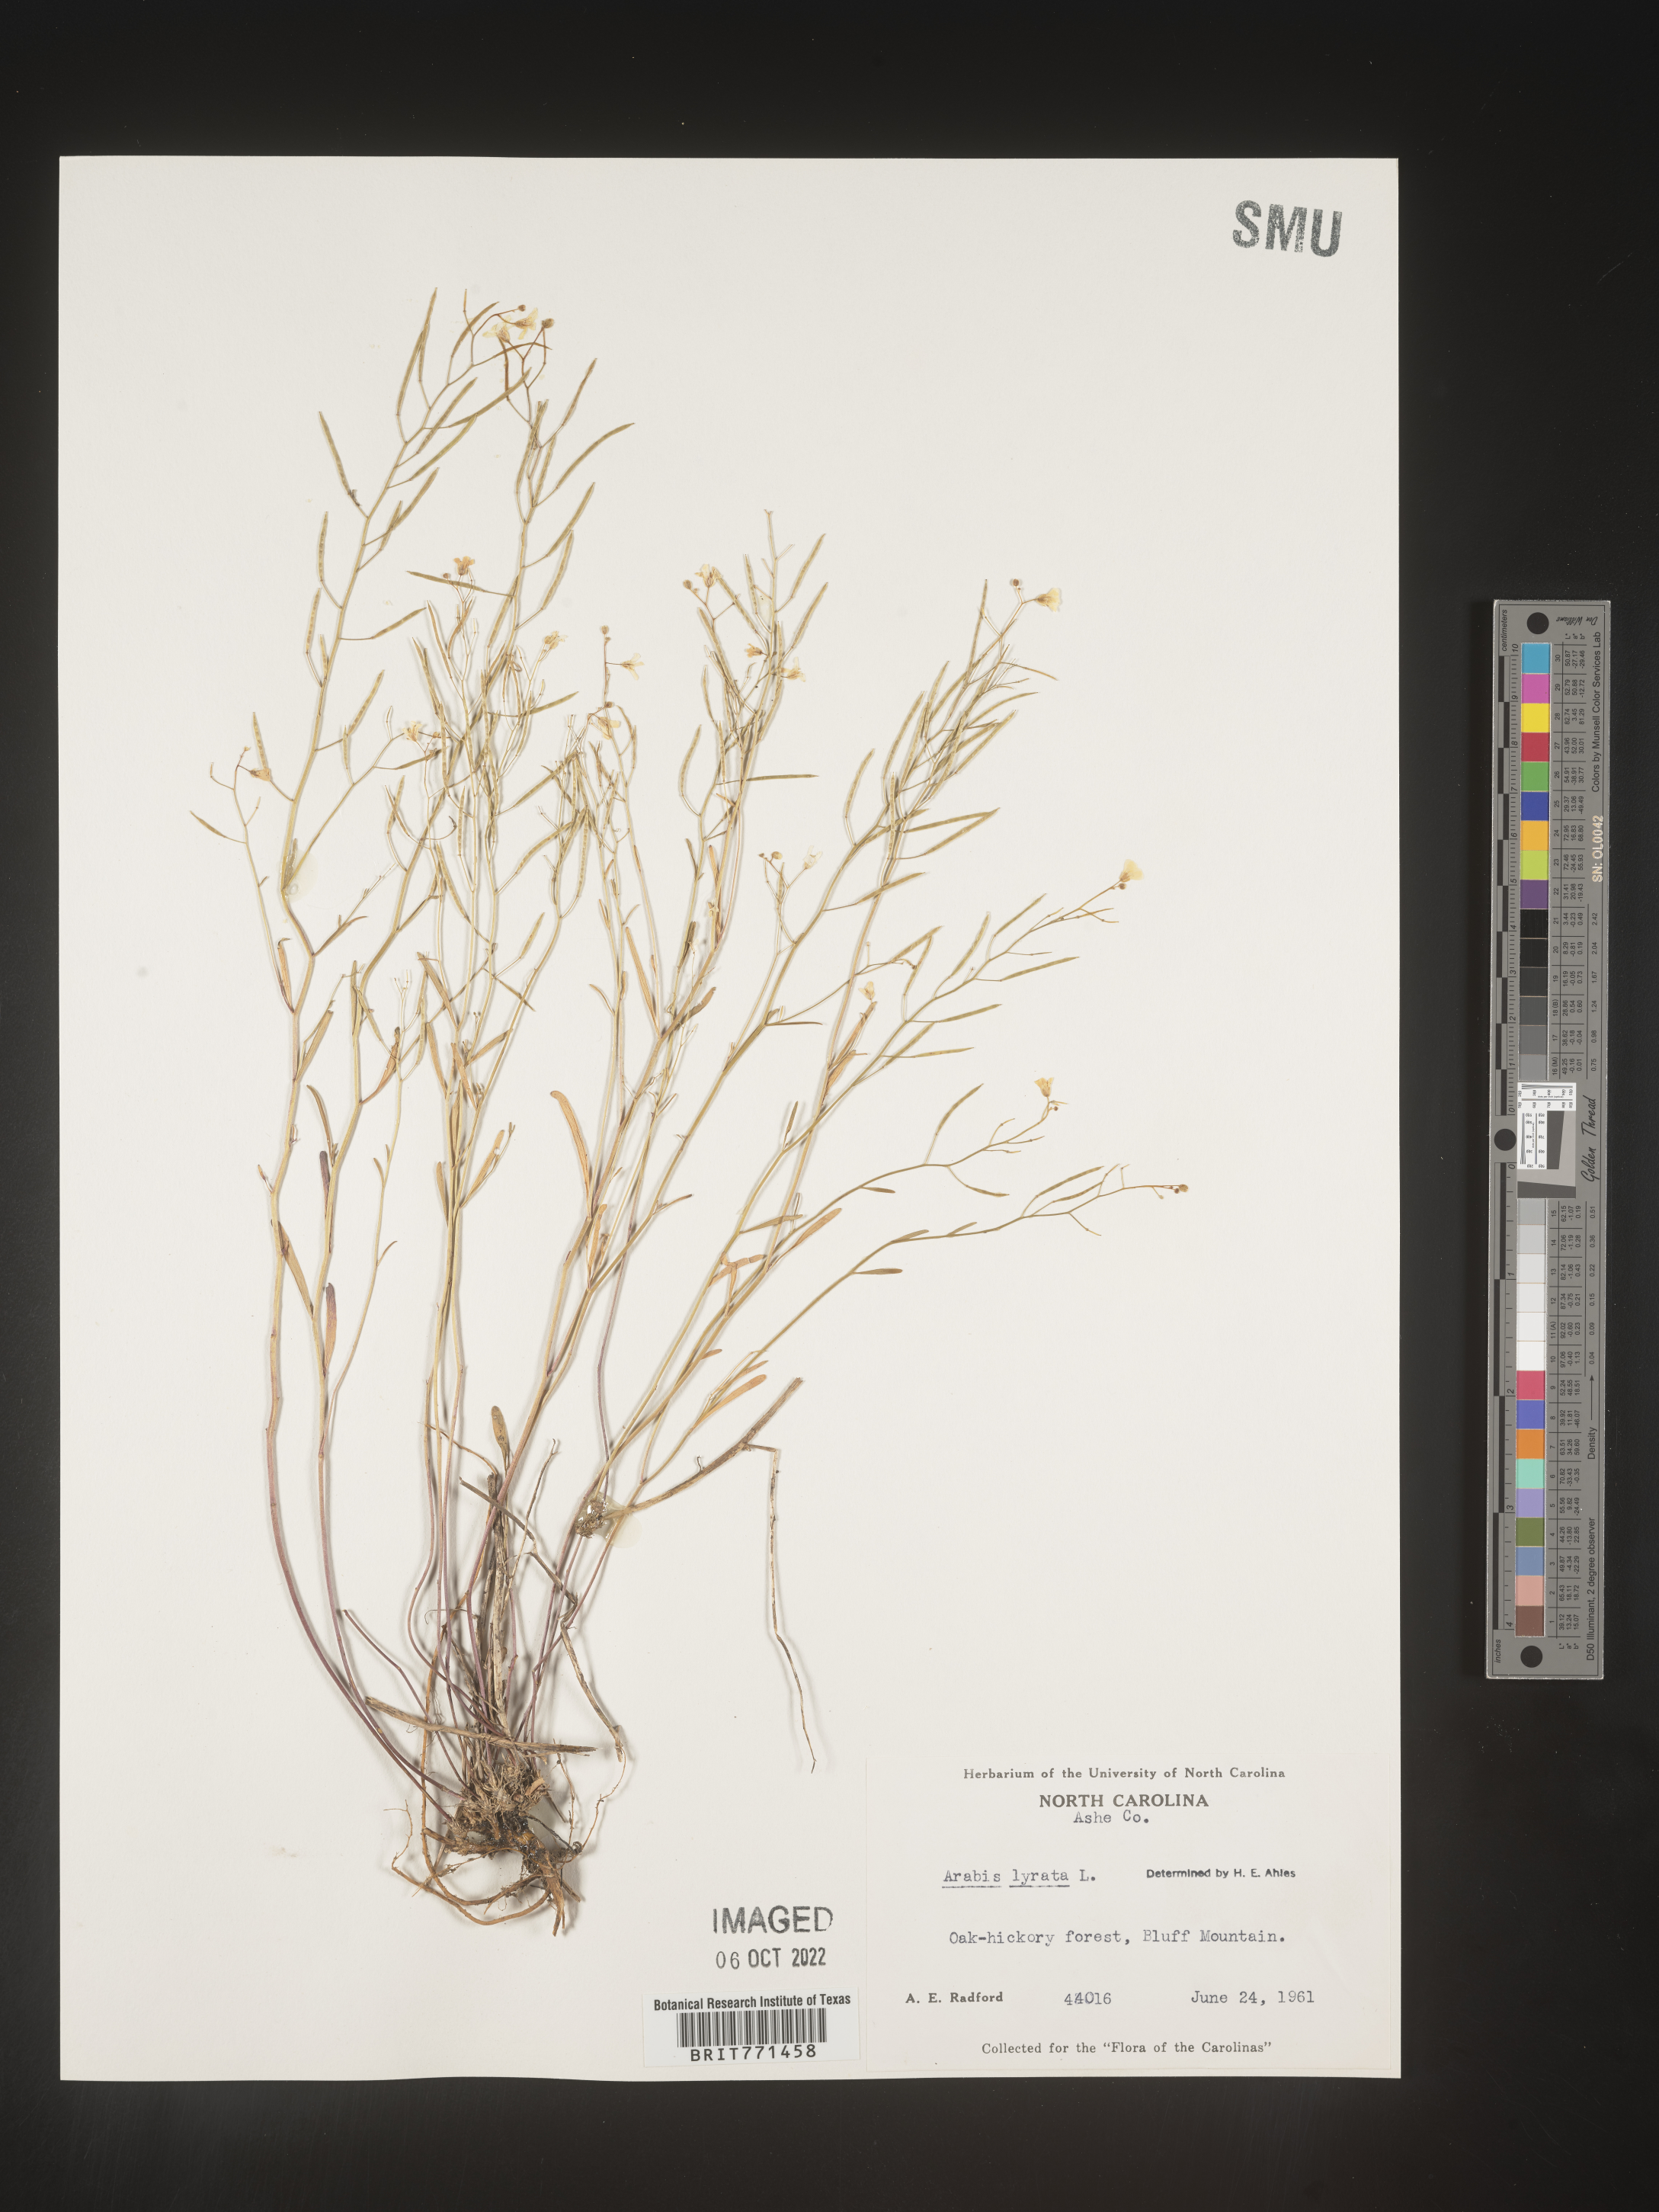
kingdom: Plantae
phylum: Tracheophyta
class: Magnoliopsida
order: Brassicales
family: Brassicaceae
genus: Arabidopsis
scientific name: Arabidopsis lyrata
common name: Lyrate rockcress
